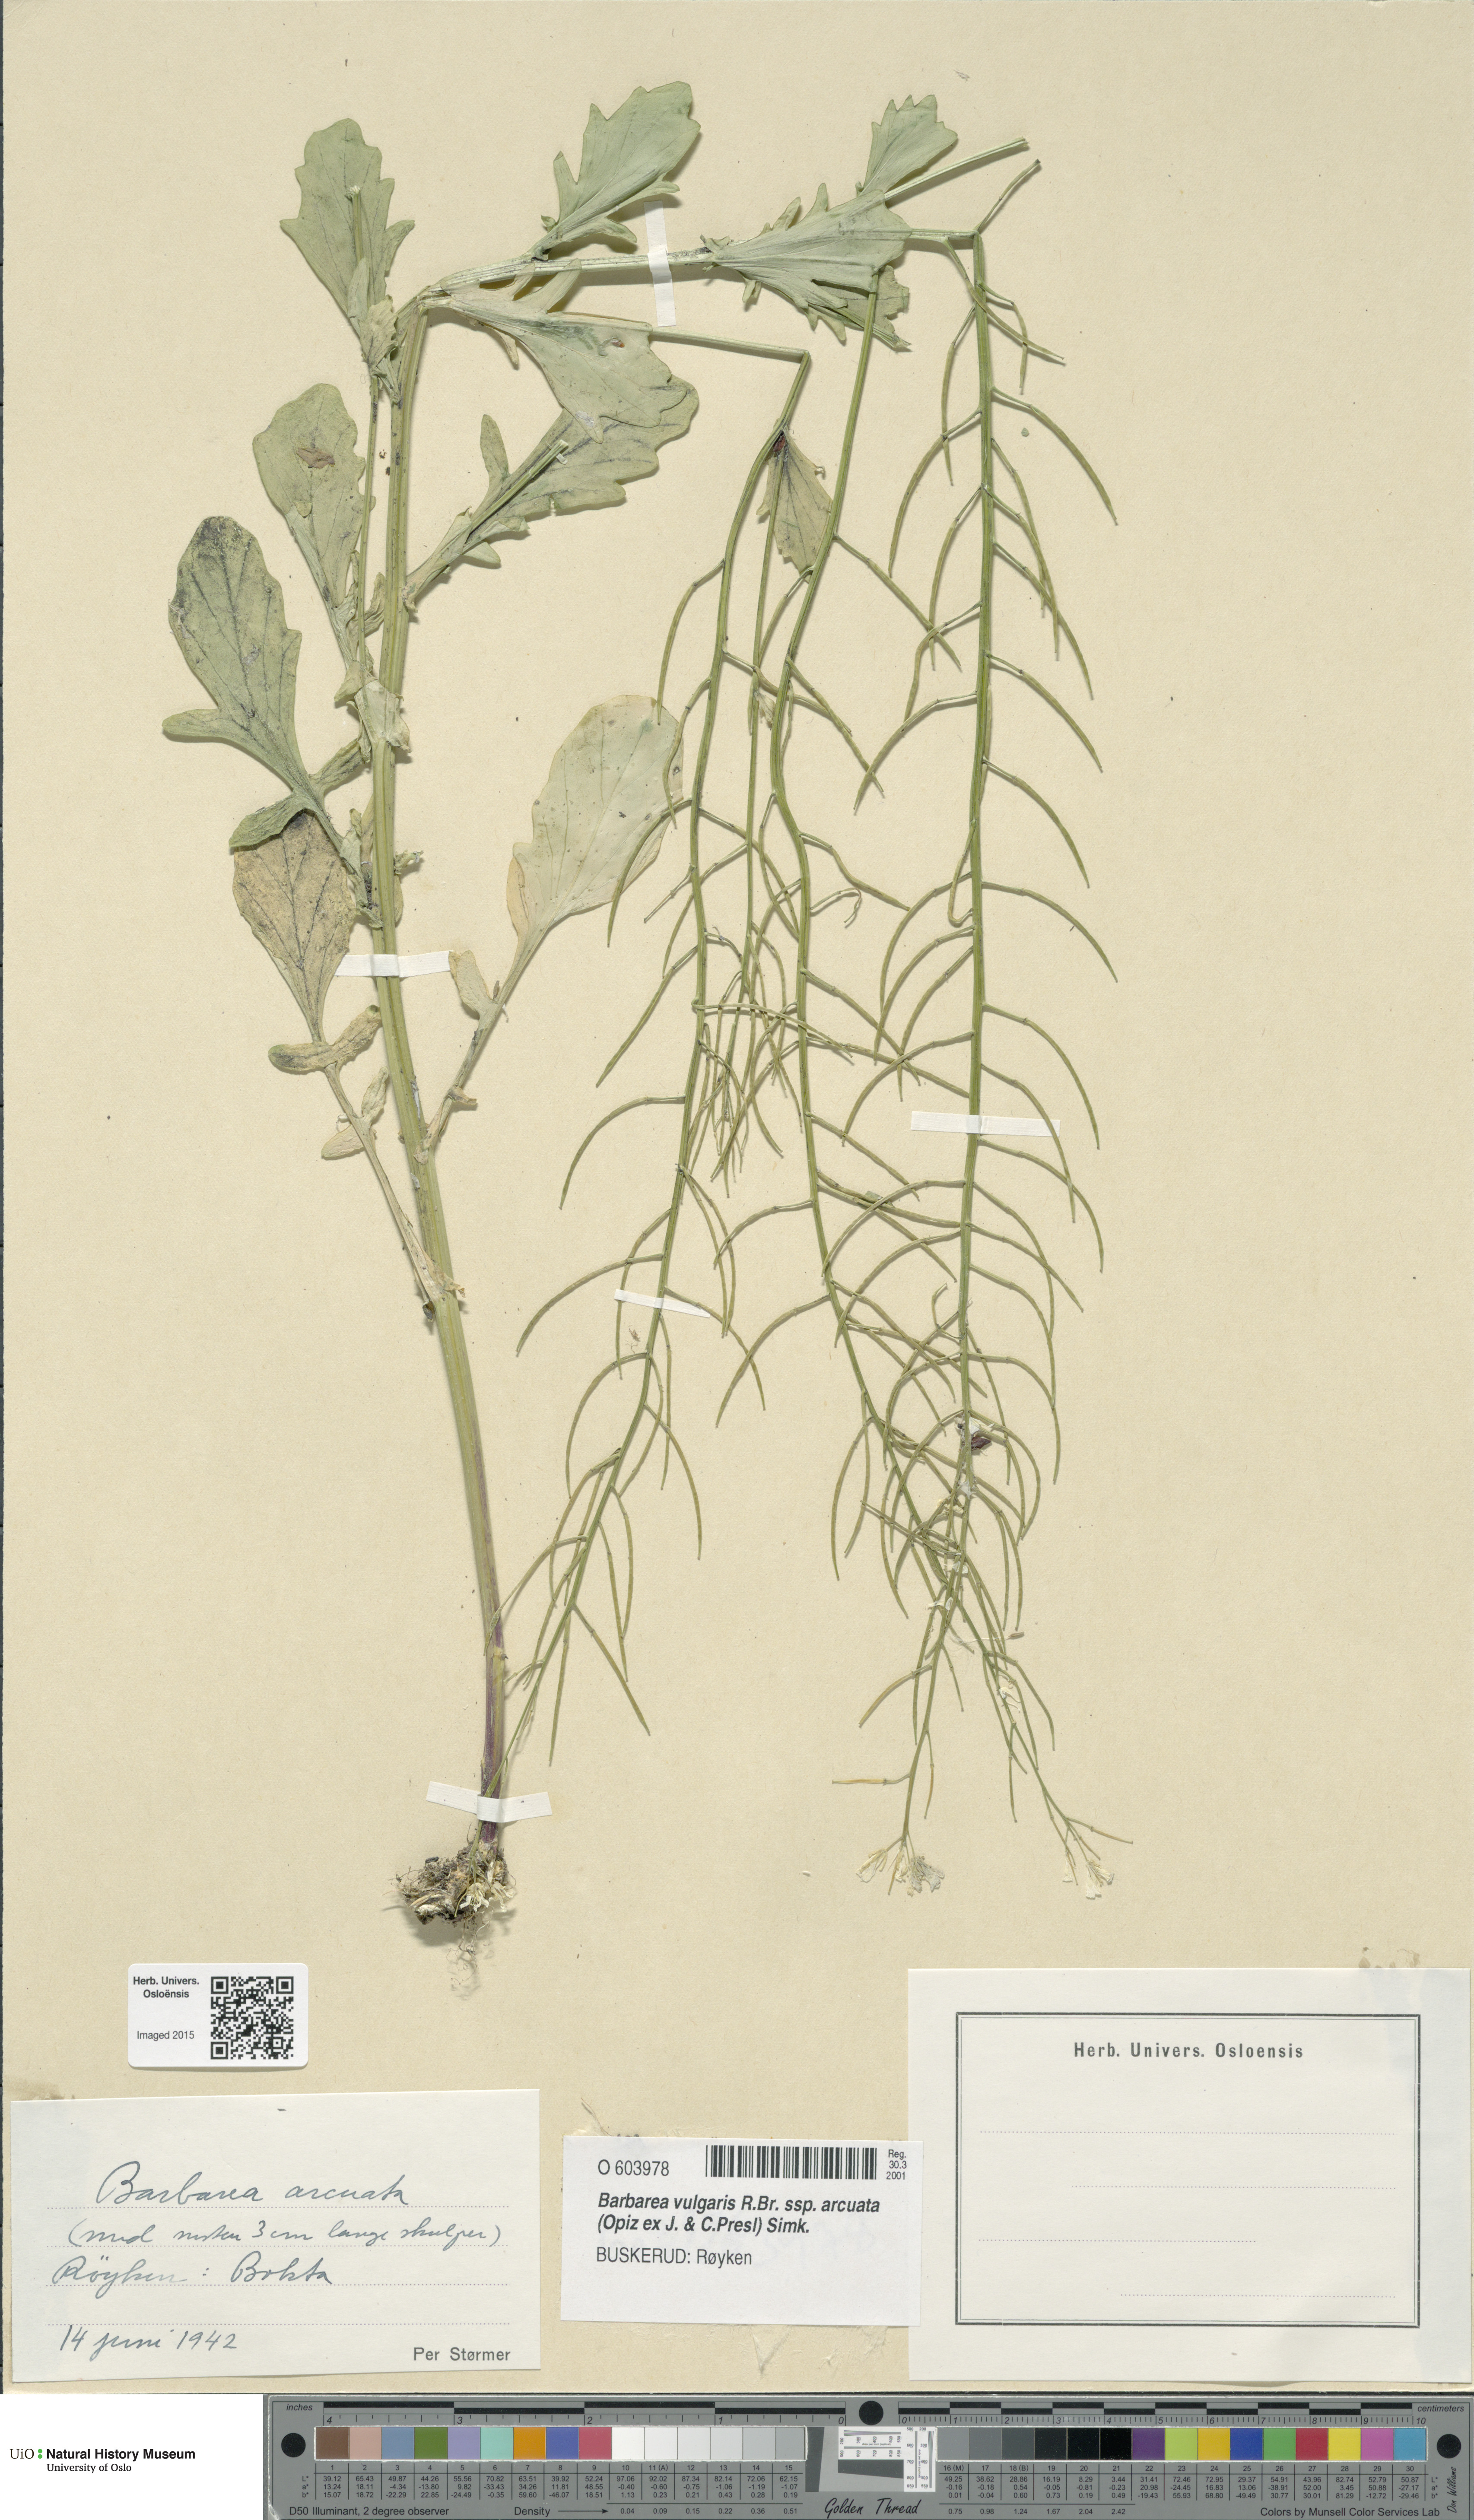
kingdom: Plantae
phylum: Tracheophyta
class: Magnoliopsida
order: Brassicales
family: Brassicaceae
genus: Barbarea
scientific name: Barbarea vulgaris
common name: Cressy-greens
